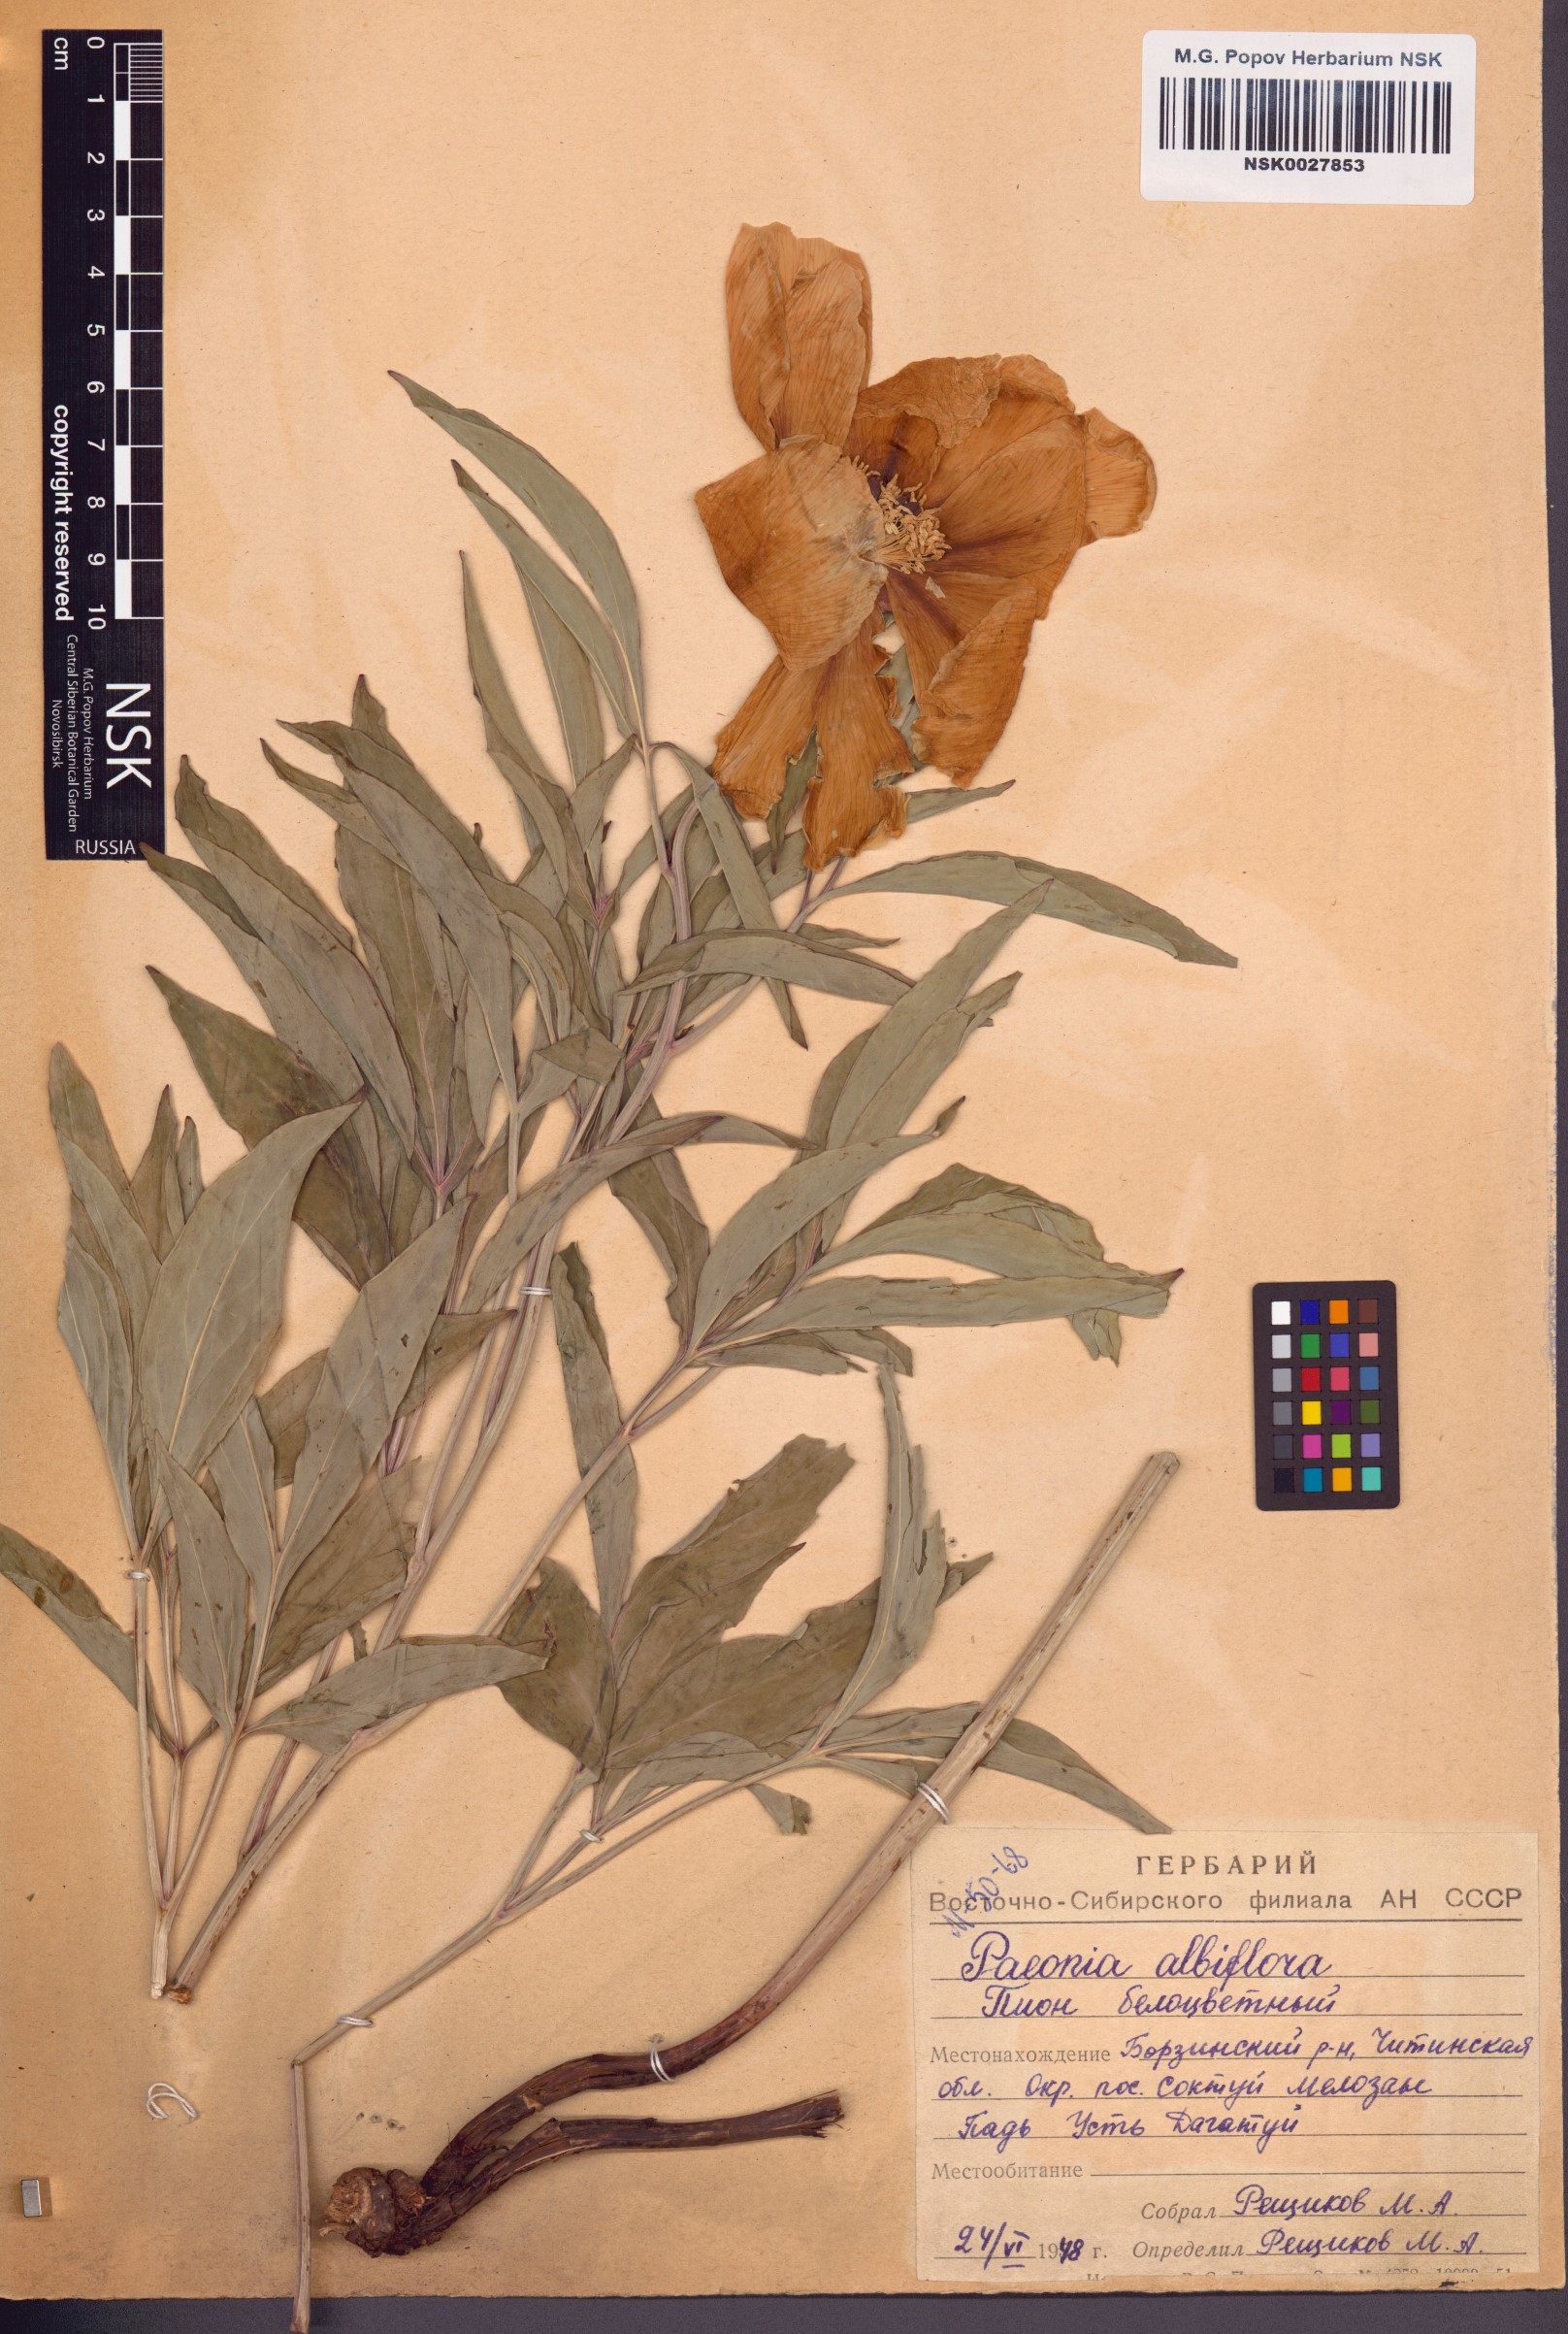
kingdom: Plantae
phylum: Tracheophyta
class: Magnoliopsida
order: Saxifragales
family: Paeoniaceae
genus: Paeonia
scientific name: Paeonia lactiflora
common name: Chinese peony
